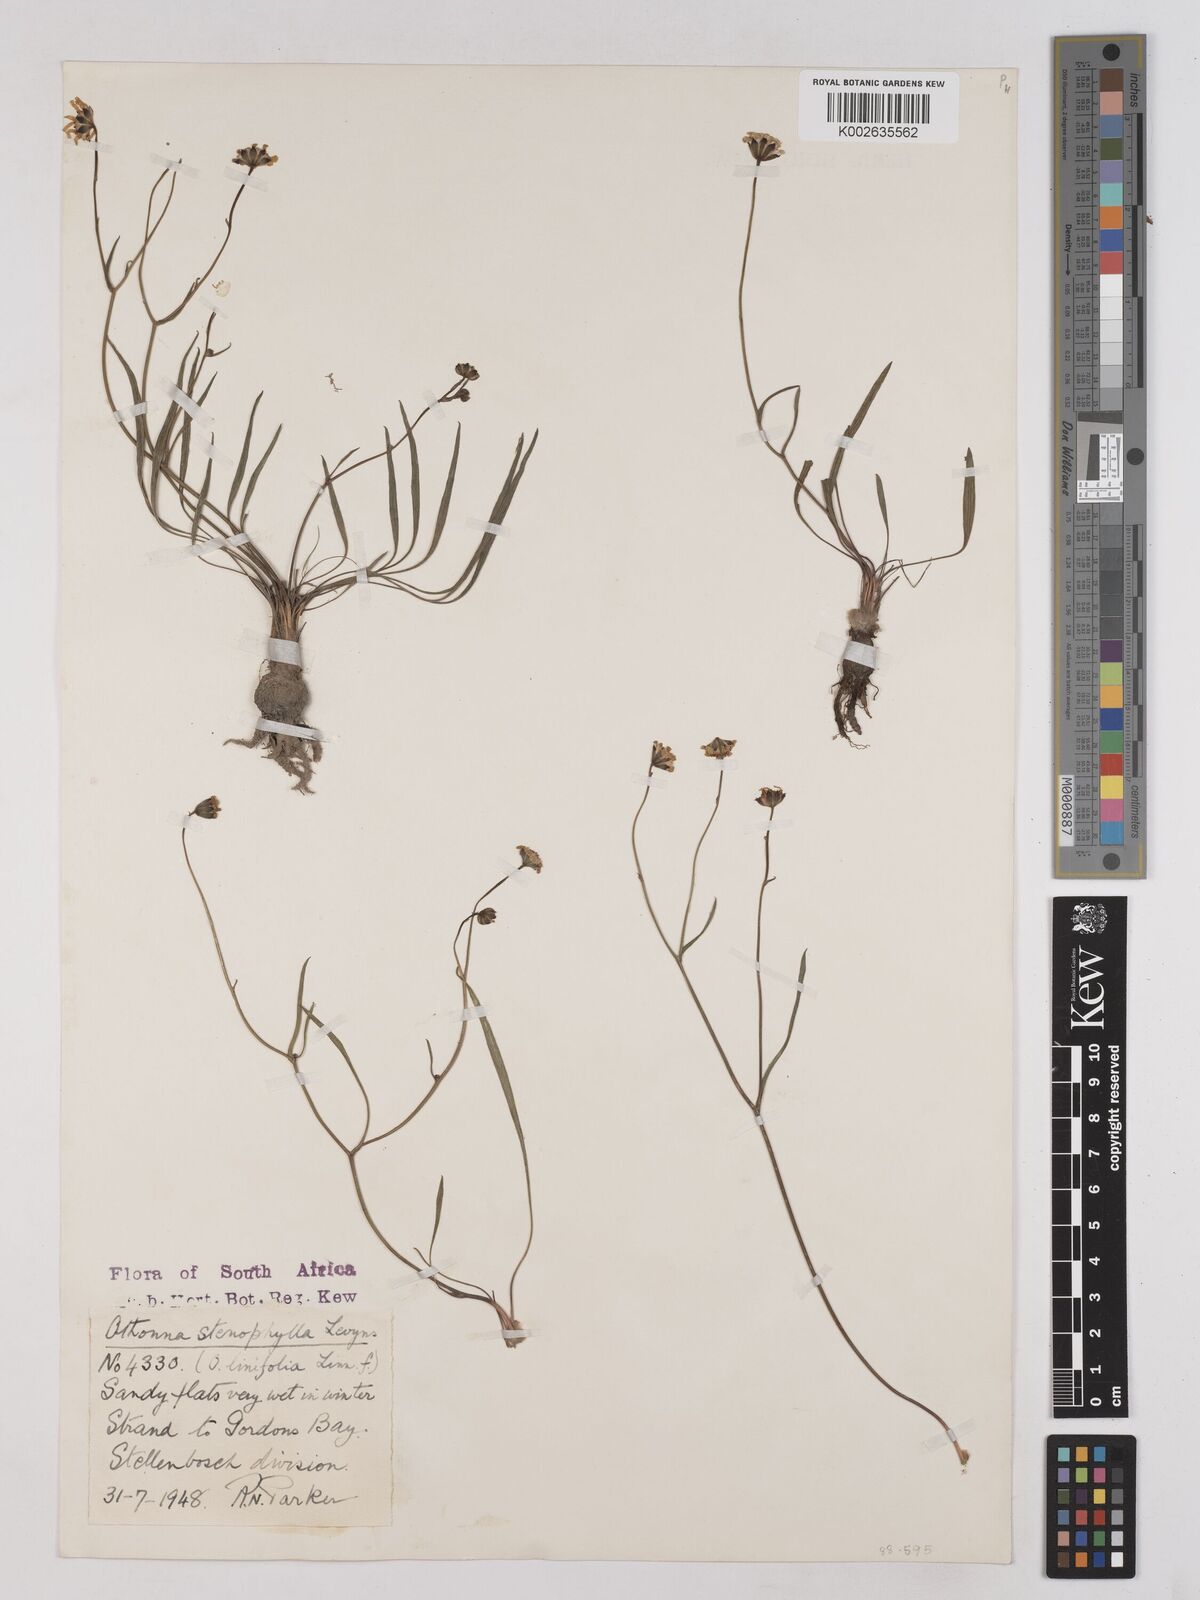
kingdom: Plantae
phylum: Tracheophyta
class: Magnoliopsida
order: Asterales
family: Asteraceae
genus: Othonna
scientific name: Othonna stenophylla
